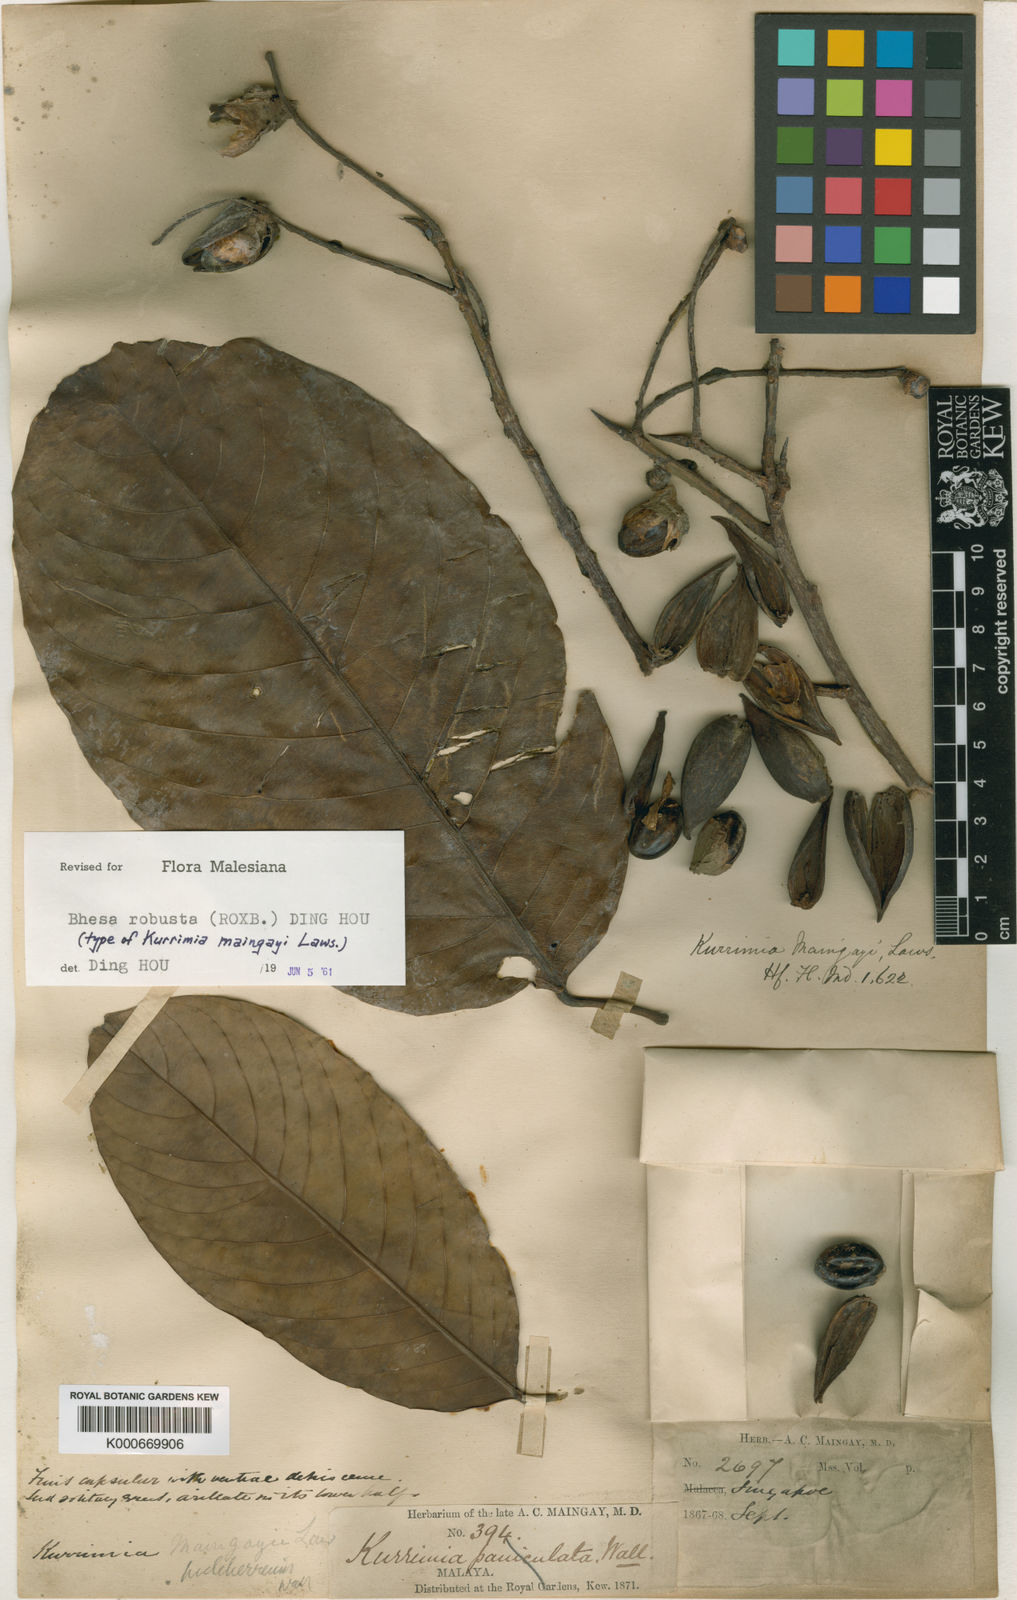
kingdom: Plantae
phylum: Tracheophyta
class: Magnoliopsida
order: Malpighiales
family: Centroplacaceae
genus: Bhesa
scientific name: Bhesa robusta
